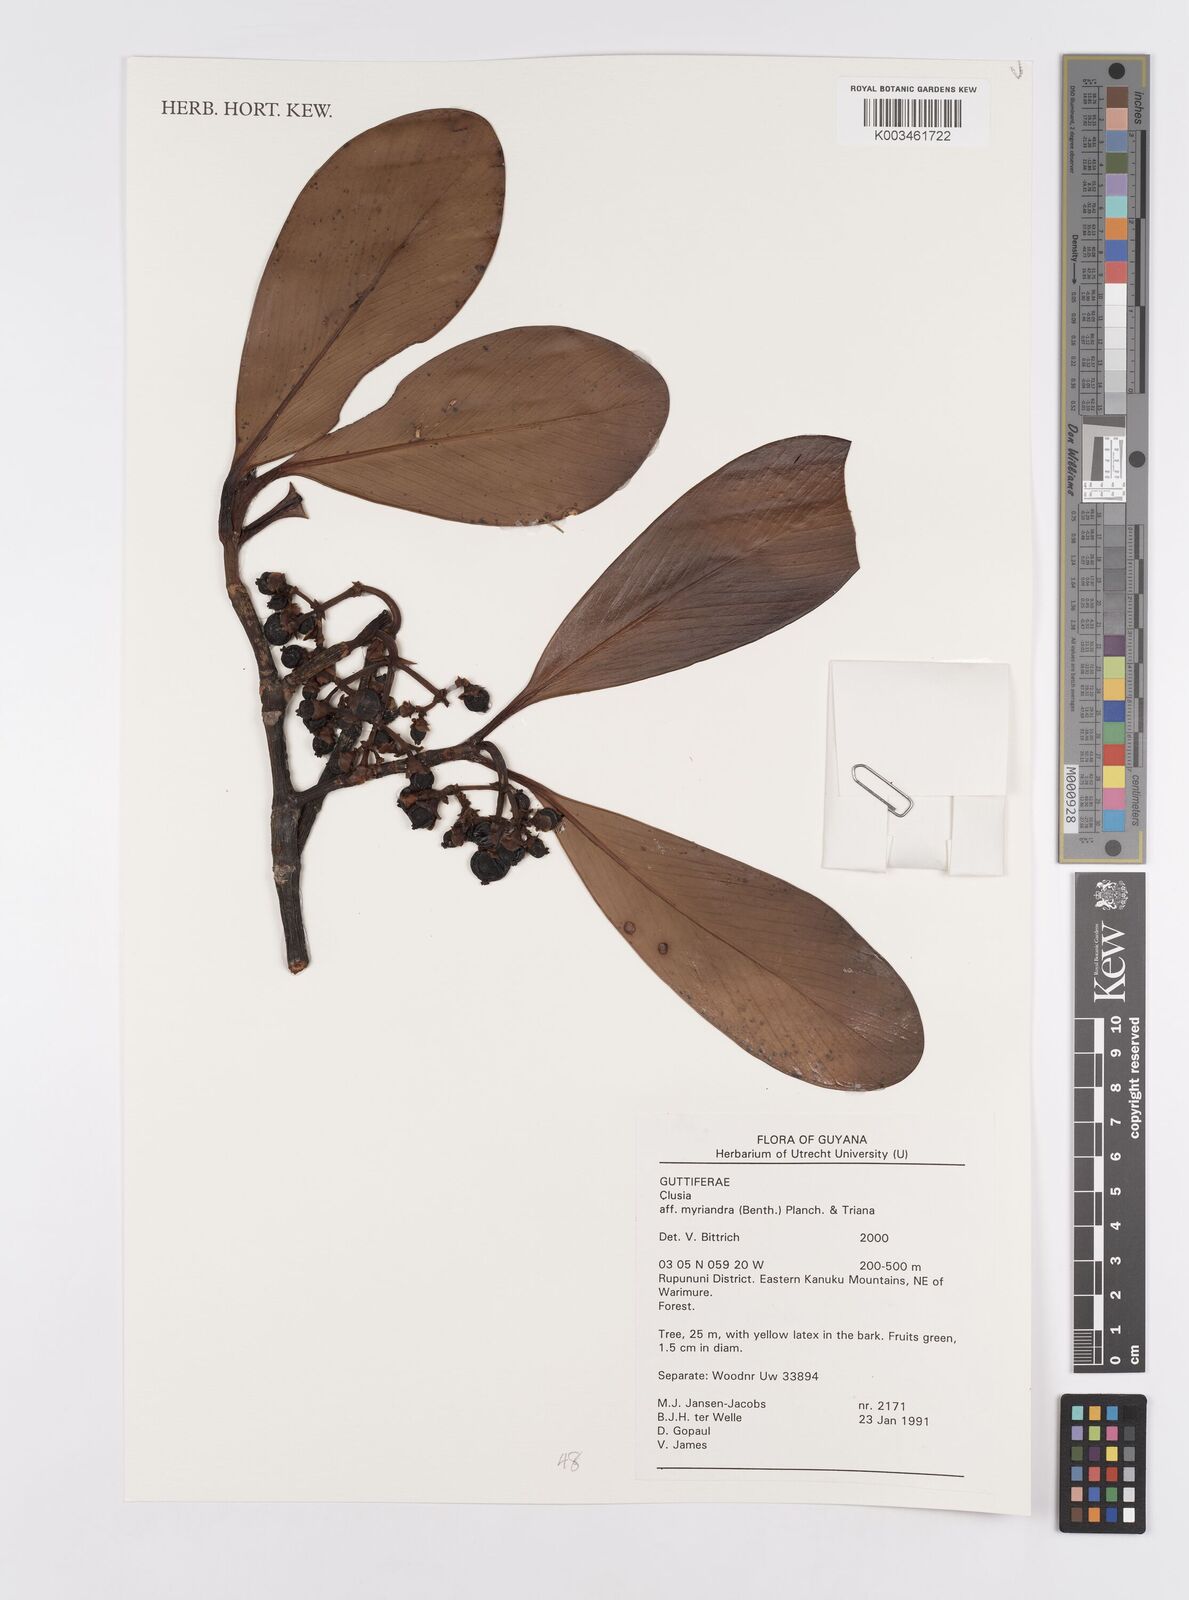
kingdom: Plantae
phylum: Tracheophyta
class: Magnoliopsida
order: Malpighiales
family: Clusiaceae
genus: Clusia
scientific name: Clusia myriandra
